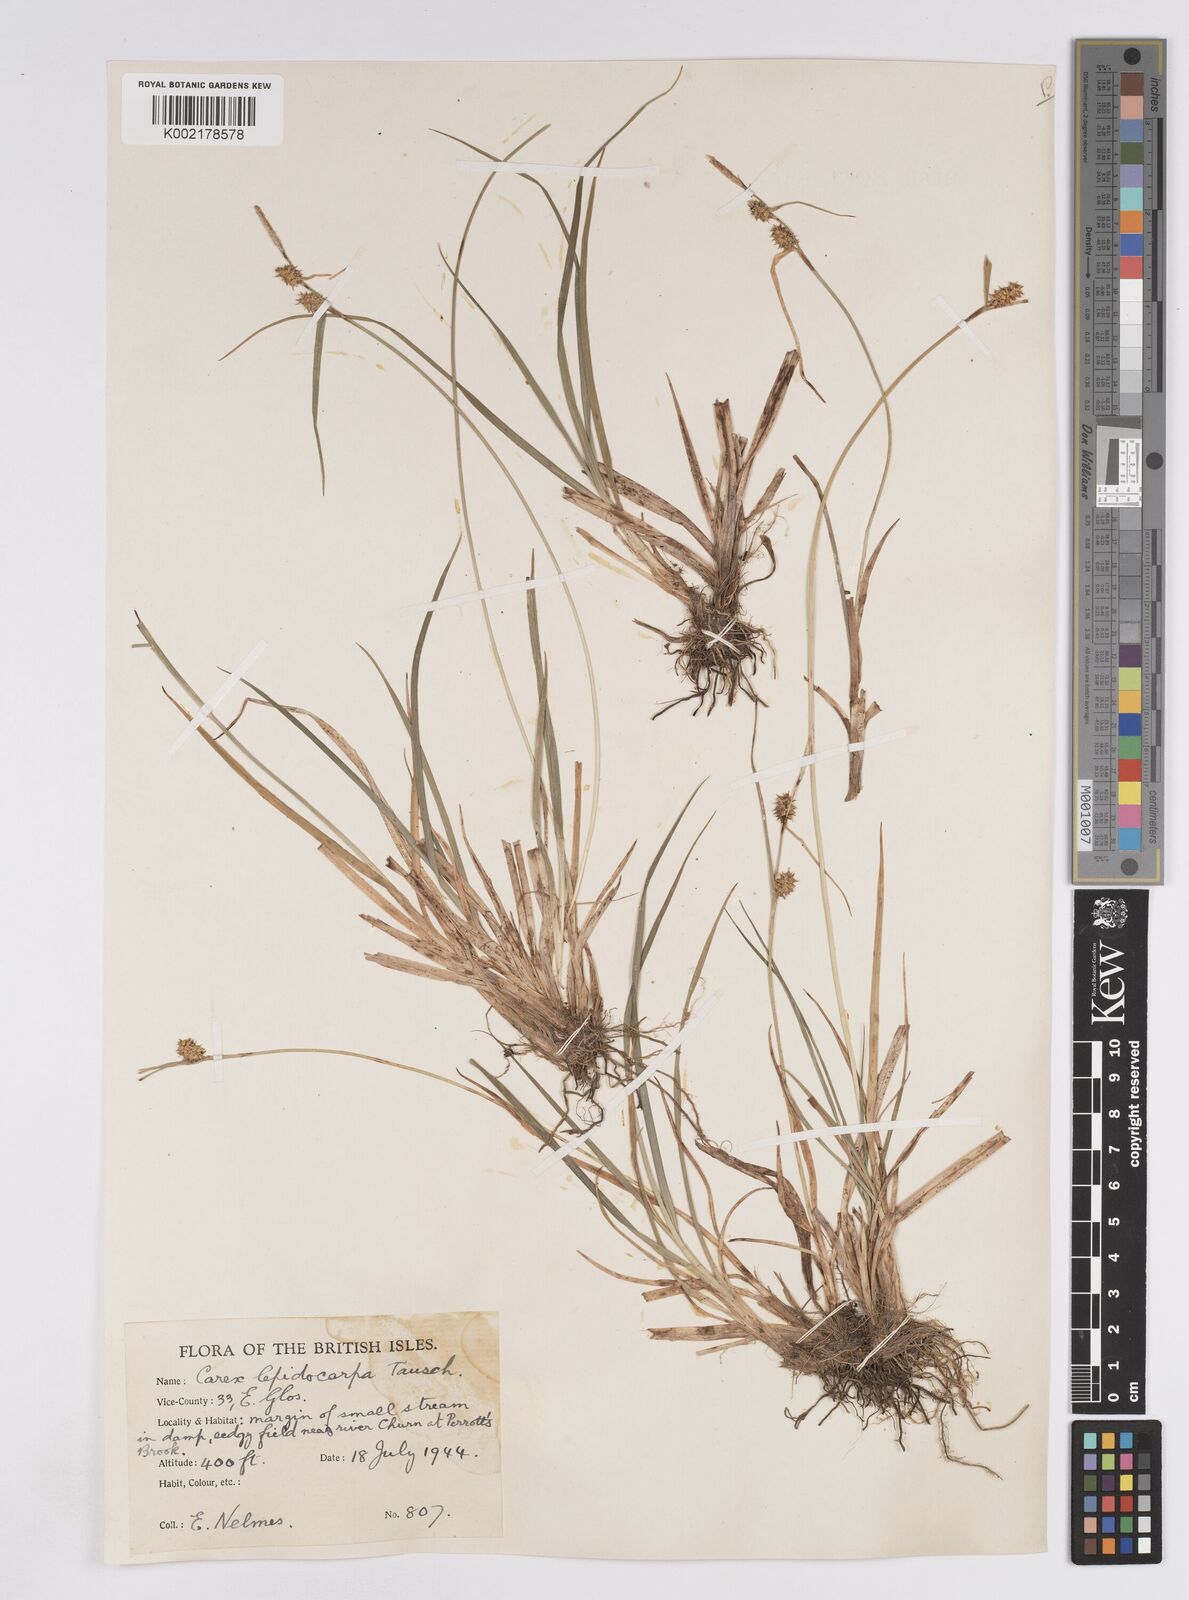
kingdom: Plantae
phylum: Tracheophyta
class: Liliopsida
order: Poales
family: Cyperaceae
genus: Carex
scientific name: Carex lepidocarpa
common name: Long-stalked yellow-sedge
